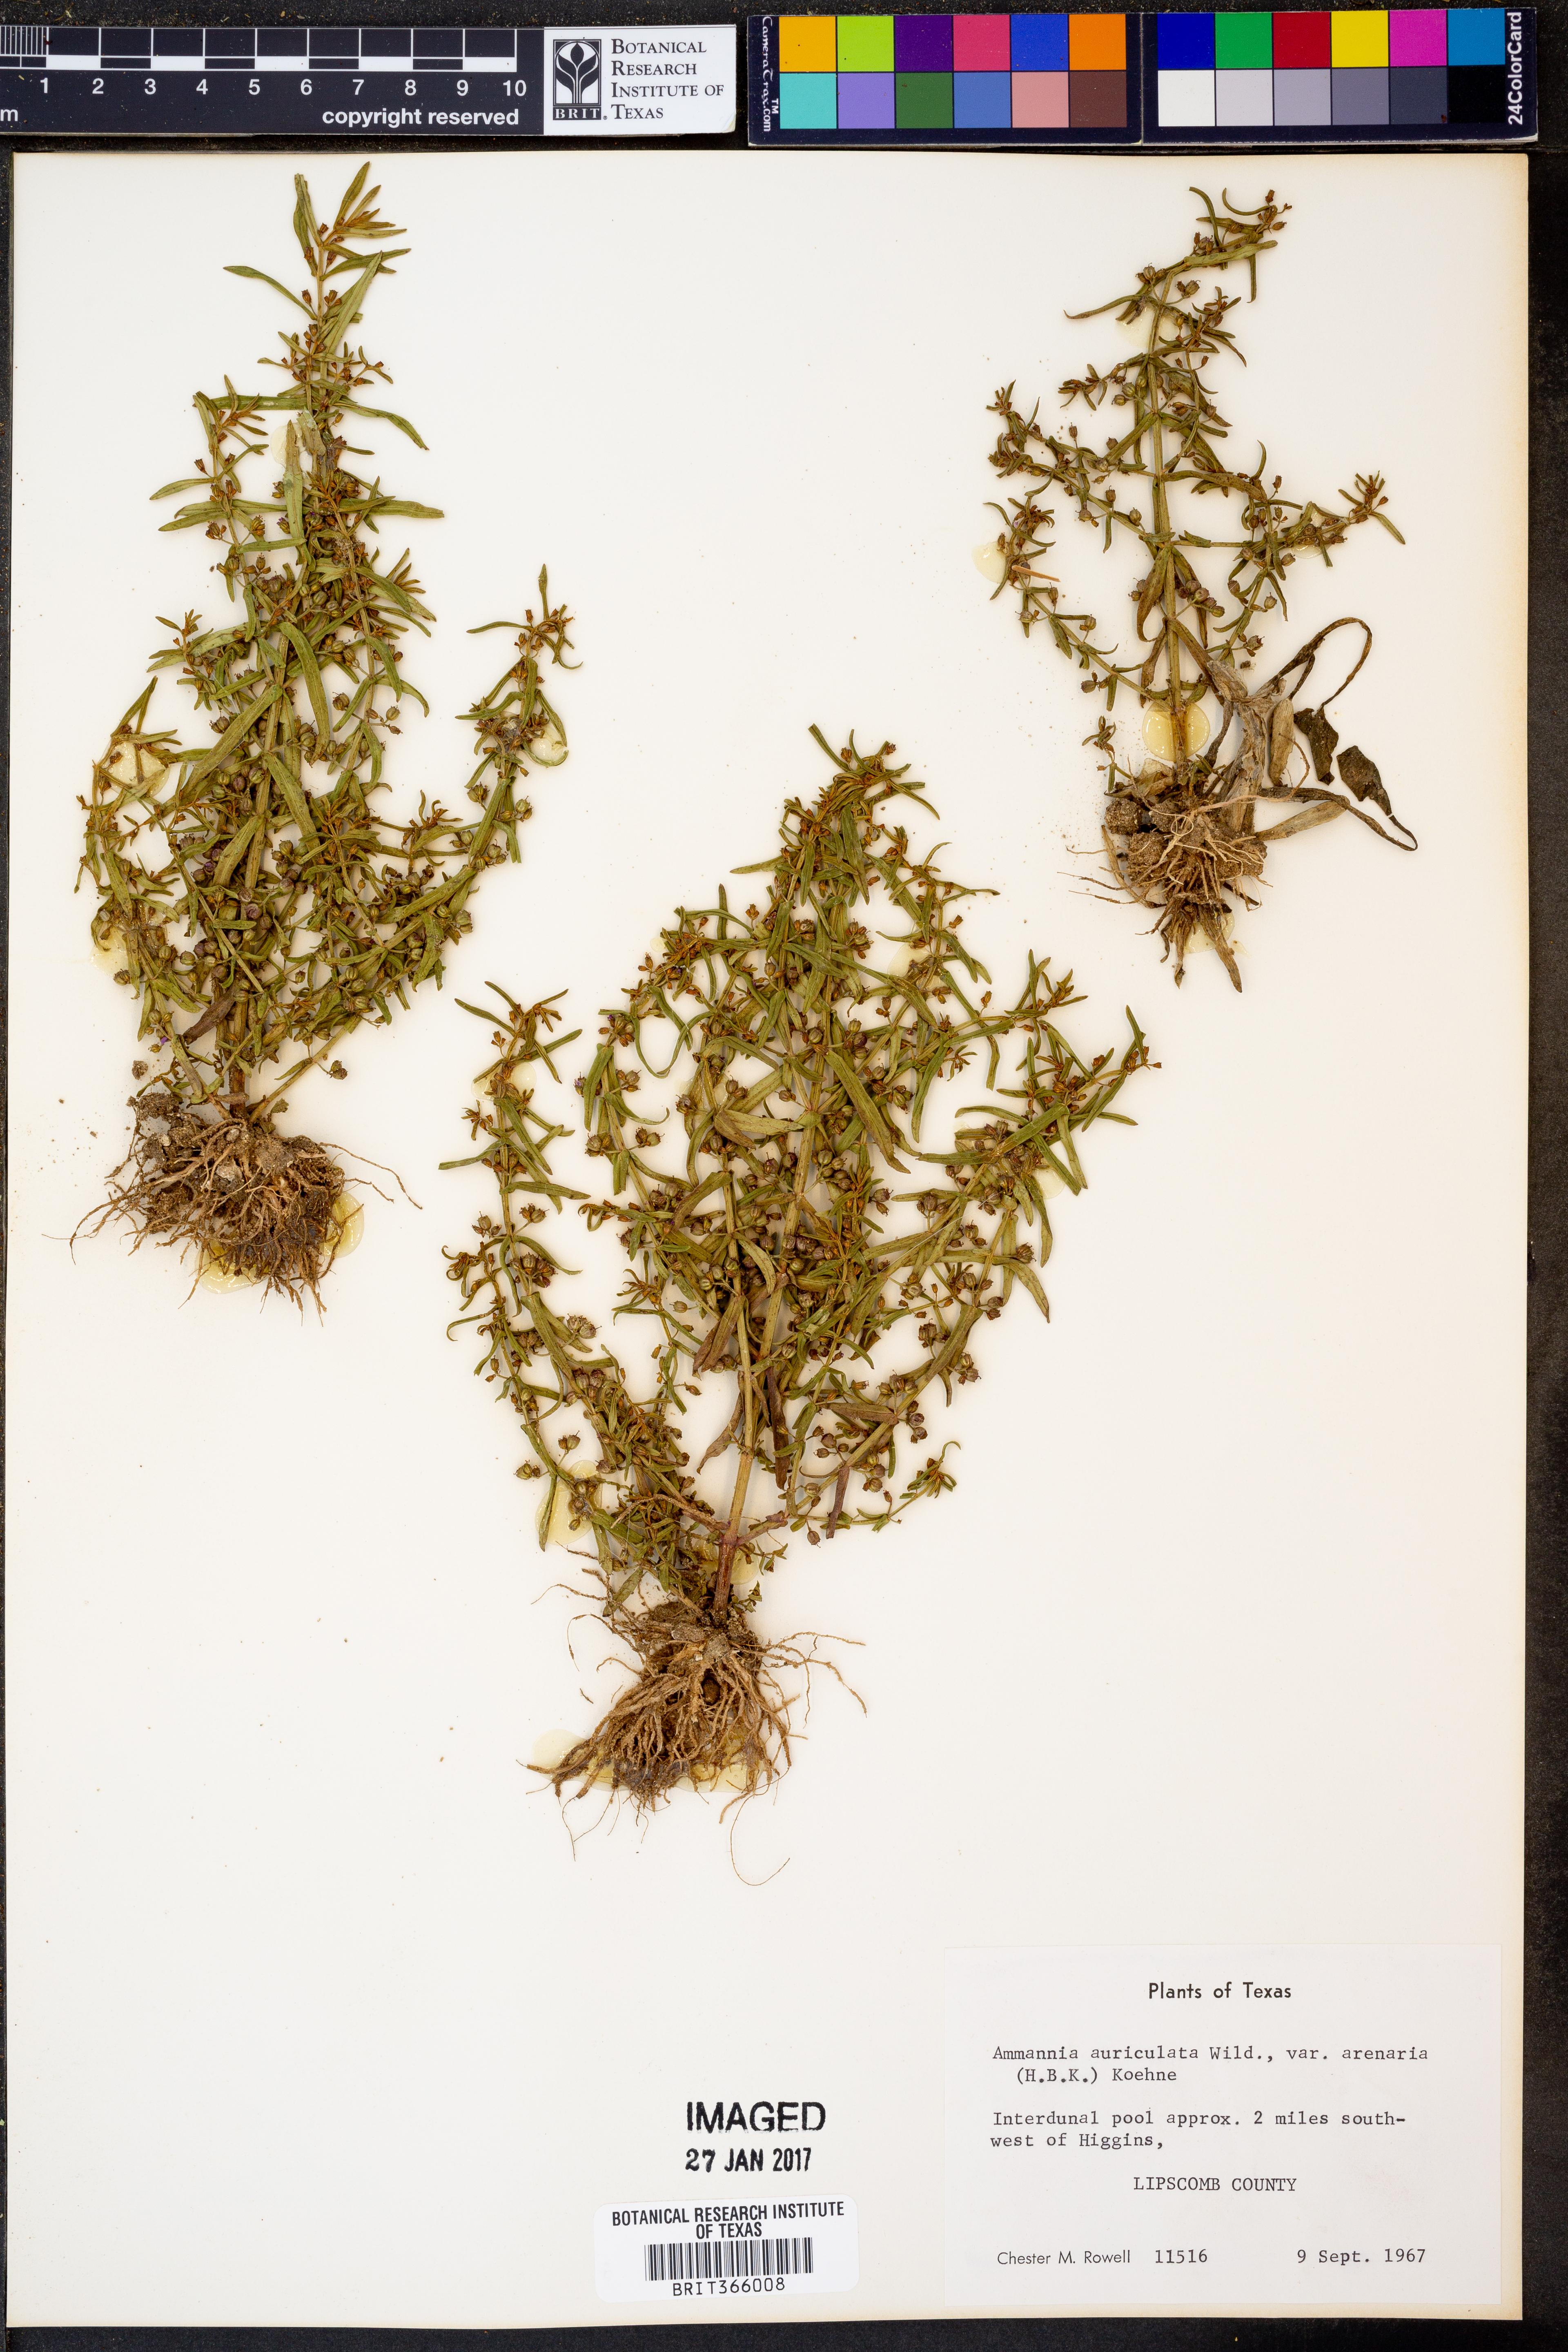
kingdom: Plantae
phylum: Tracheophyta
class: Magnoliopsida
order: Myrtales
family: Lythraceae
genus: Ammannia
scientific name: Ammannia auriculata
